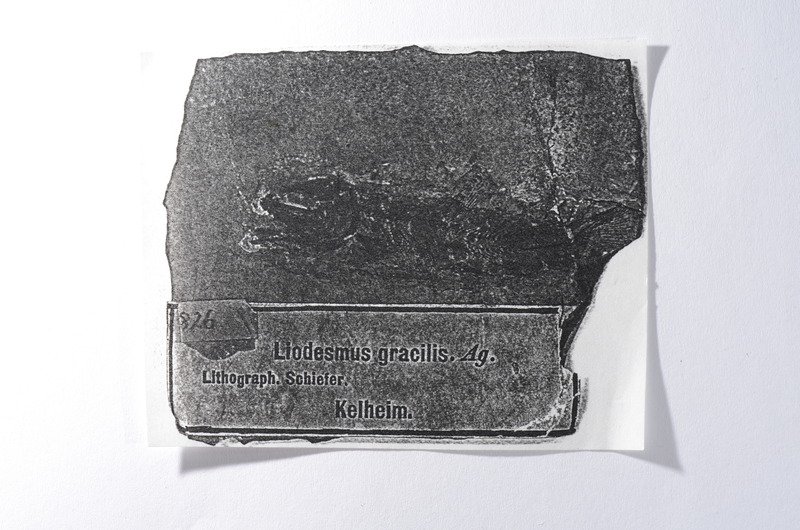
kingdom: Animalia
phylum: Chordata
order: Amiiformes
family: Liodesmidae
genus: Liodesmus
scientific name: Liodesmus gracilis
